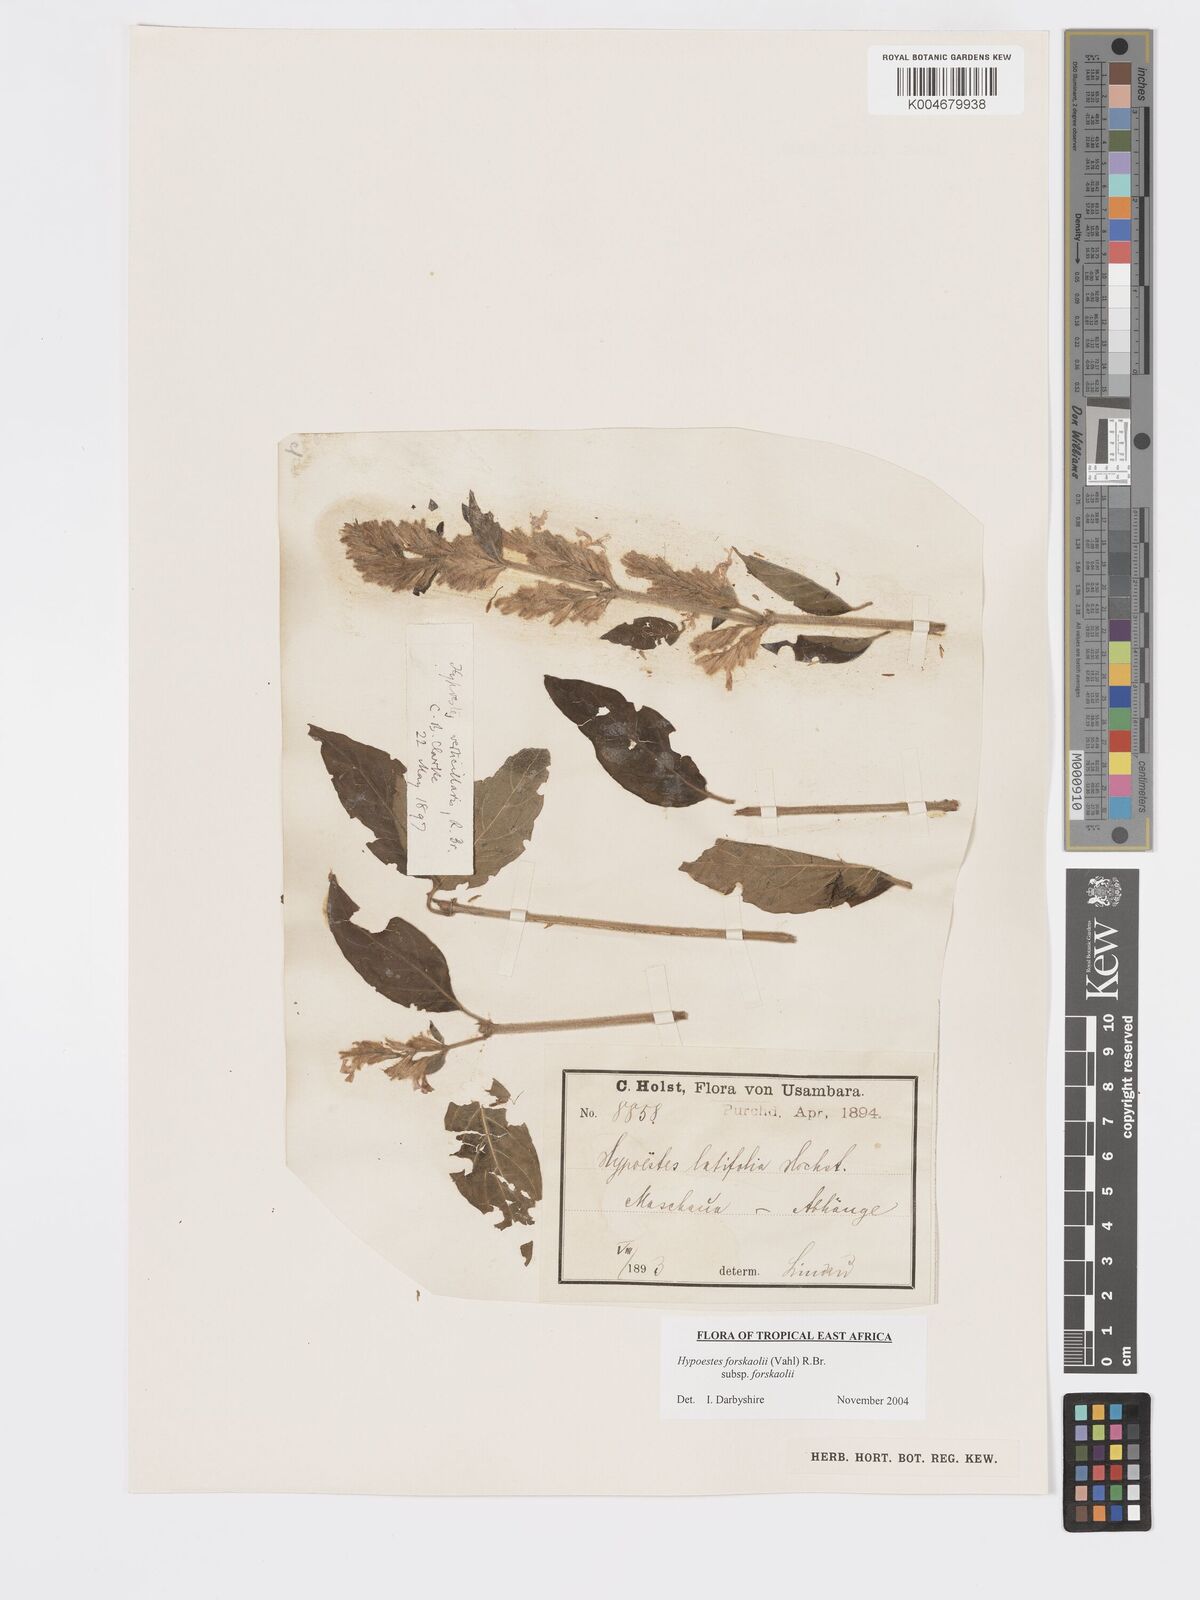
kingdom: Plantae
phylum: Tracheophyta
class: Magnoliopsida
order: Lamiales
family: Acanthaceae
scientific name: Acanthaceae
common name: Acanthaceae
